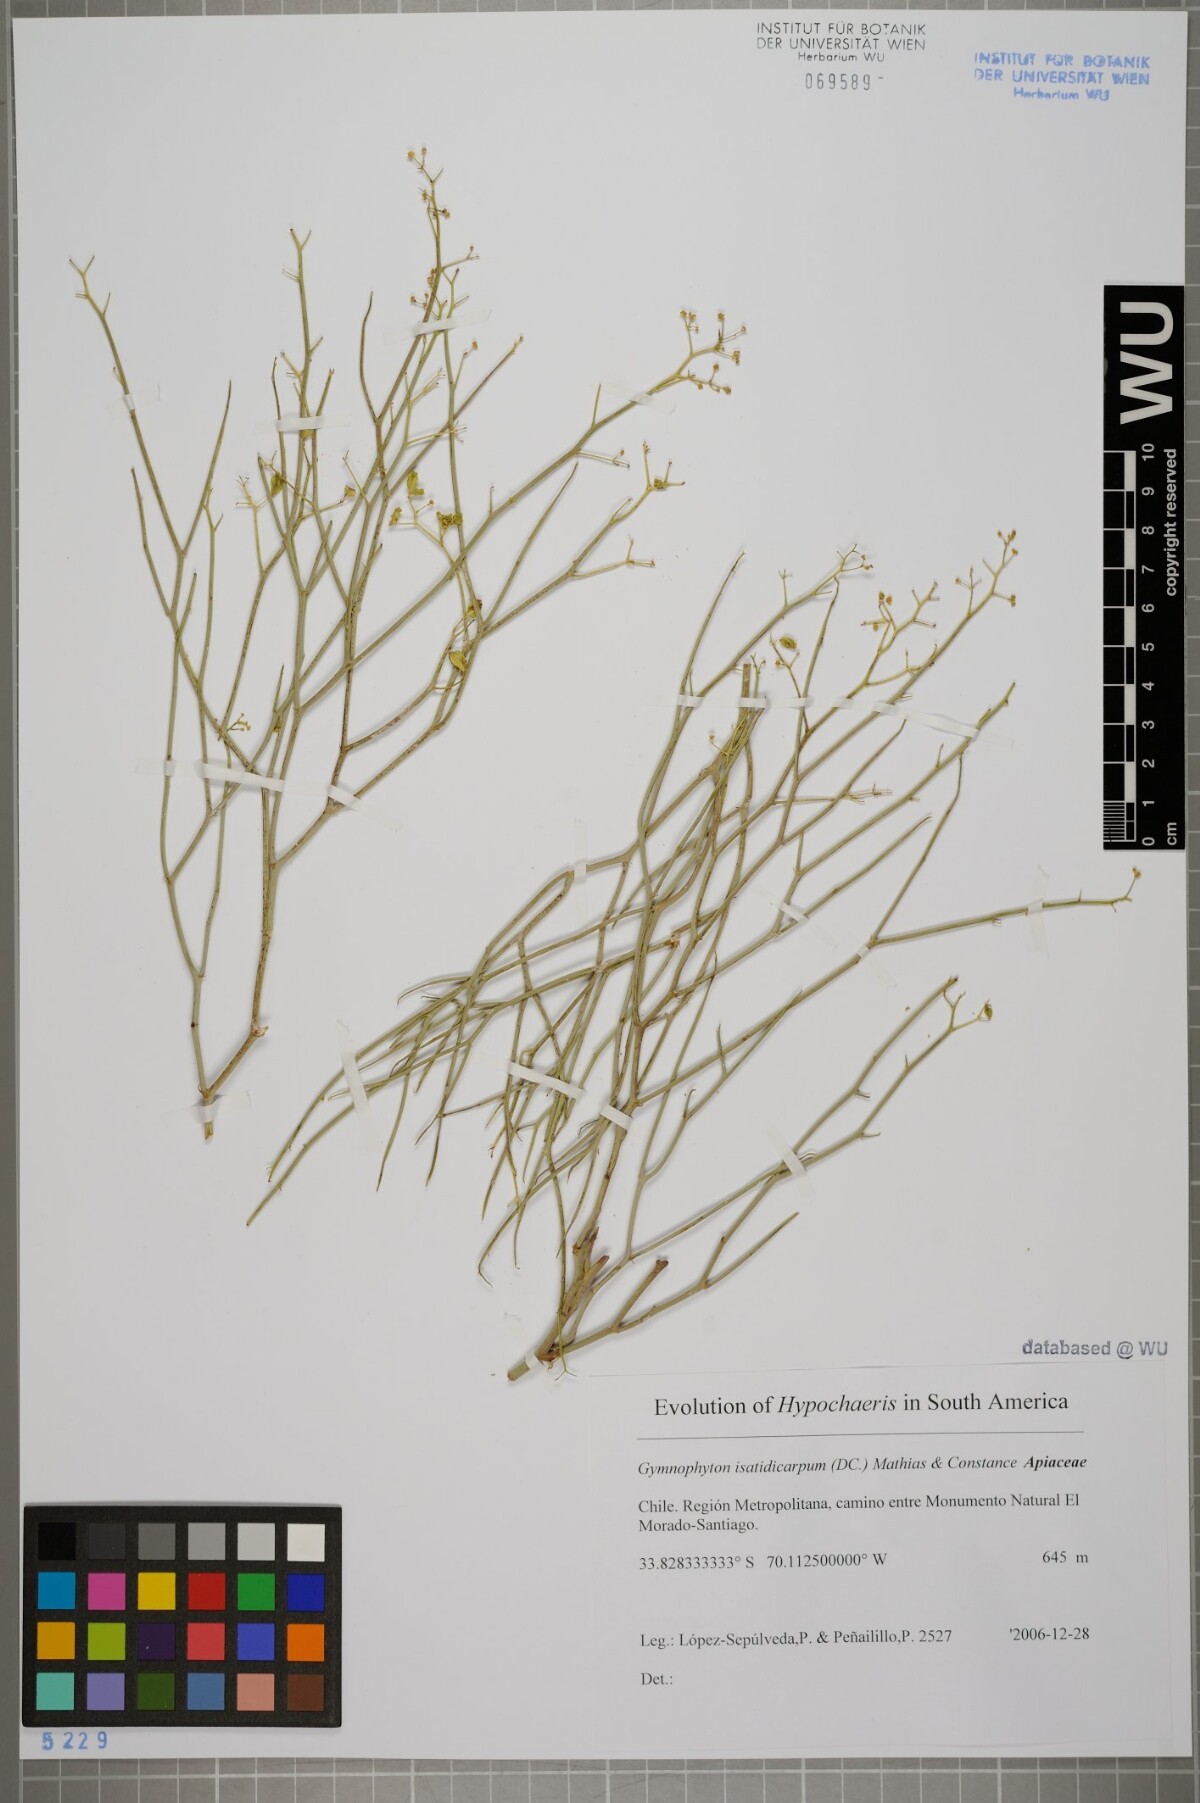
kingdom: Plantae
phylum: Tracheophyta
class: Magnoliopsida
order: Apiales
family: Apiaceae
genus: Gymnophyton
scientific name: Gymnophyton isatidicarpum
